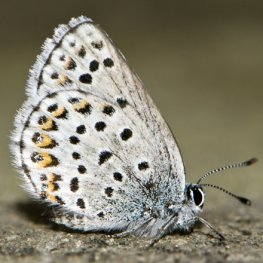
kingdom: Animalia
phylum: Arthropoda
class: Insecta
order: Lepidoptera
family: Lycaenidae
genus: Lycaeides
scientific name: Lycaeides idas
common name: Northern Blue
